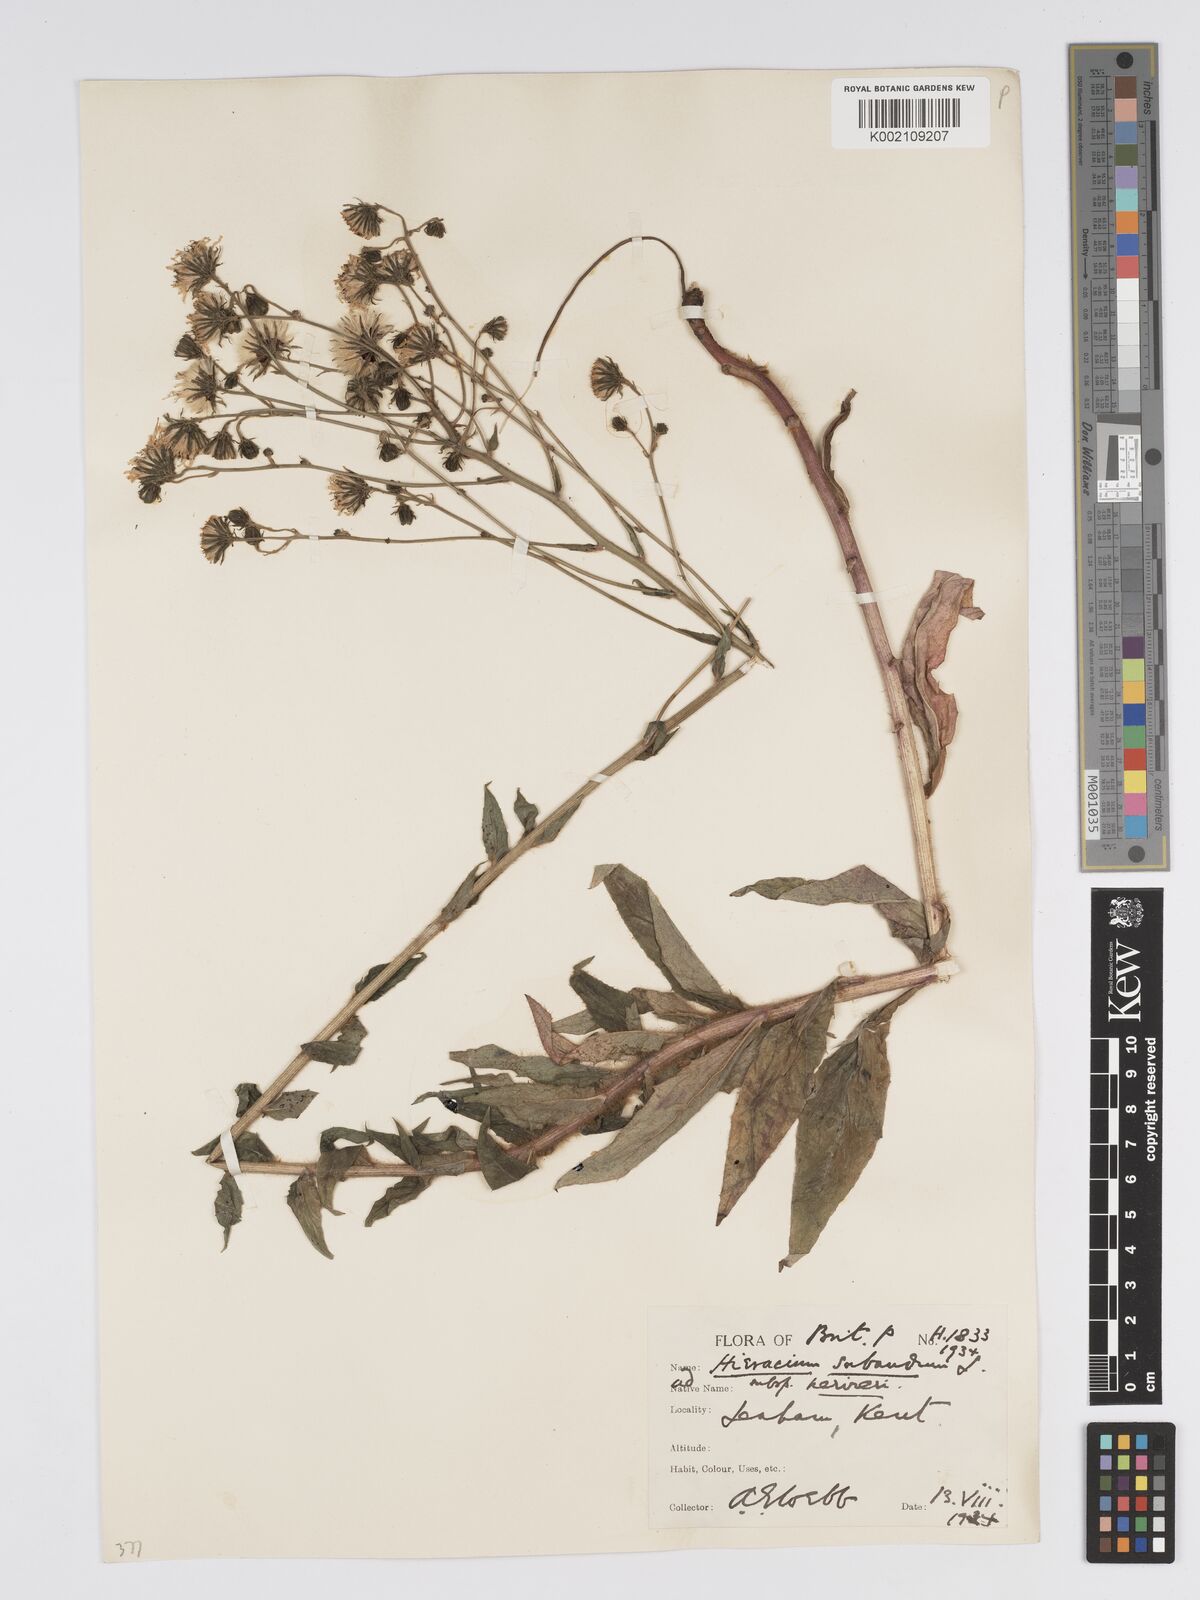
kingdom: Plantae
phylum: Tracheophyta
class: Magnoliopsida
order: Asterales
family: Asteraceae
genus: Hieracium
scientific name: Hieracium sabaudum
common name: New england hawkweed
